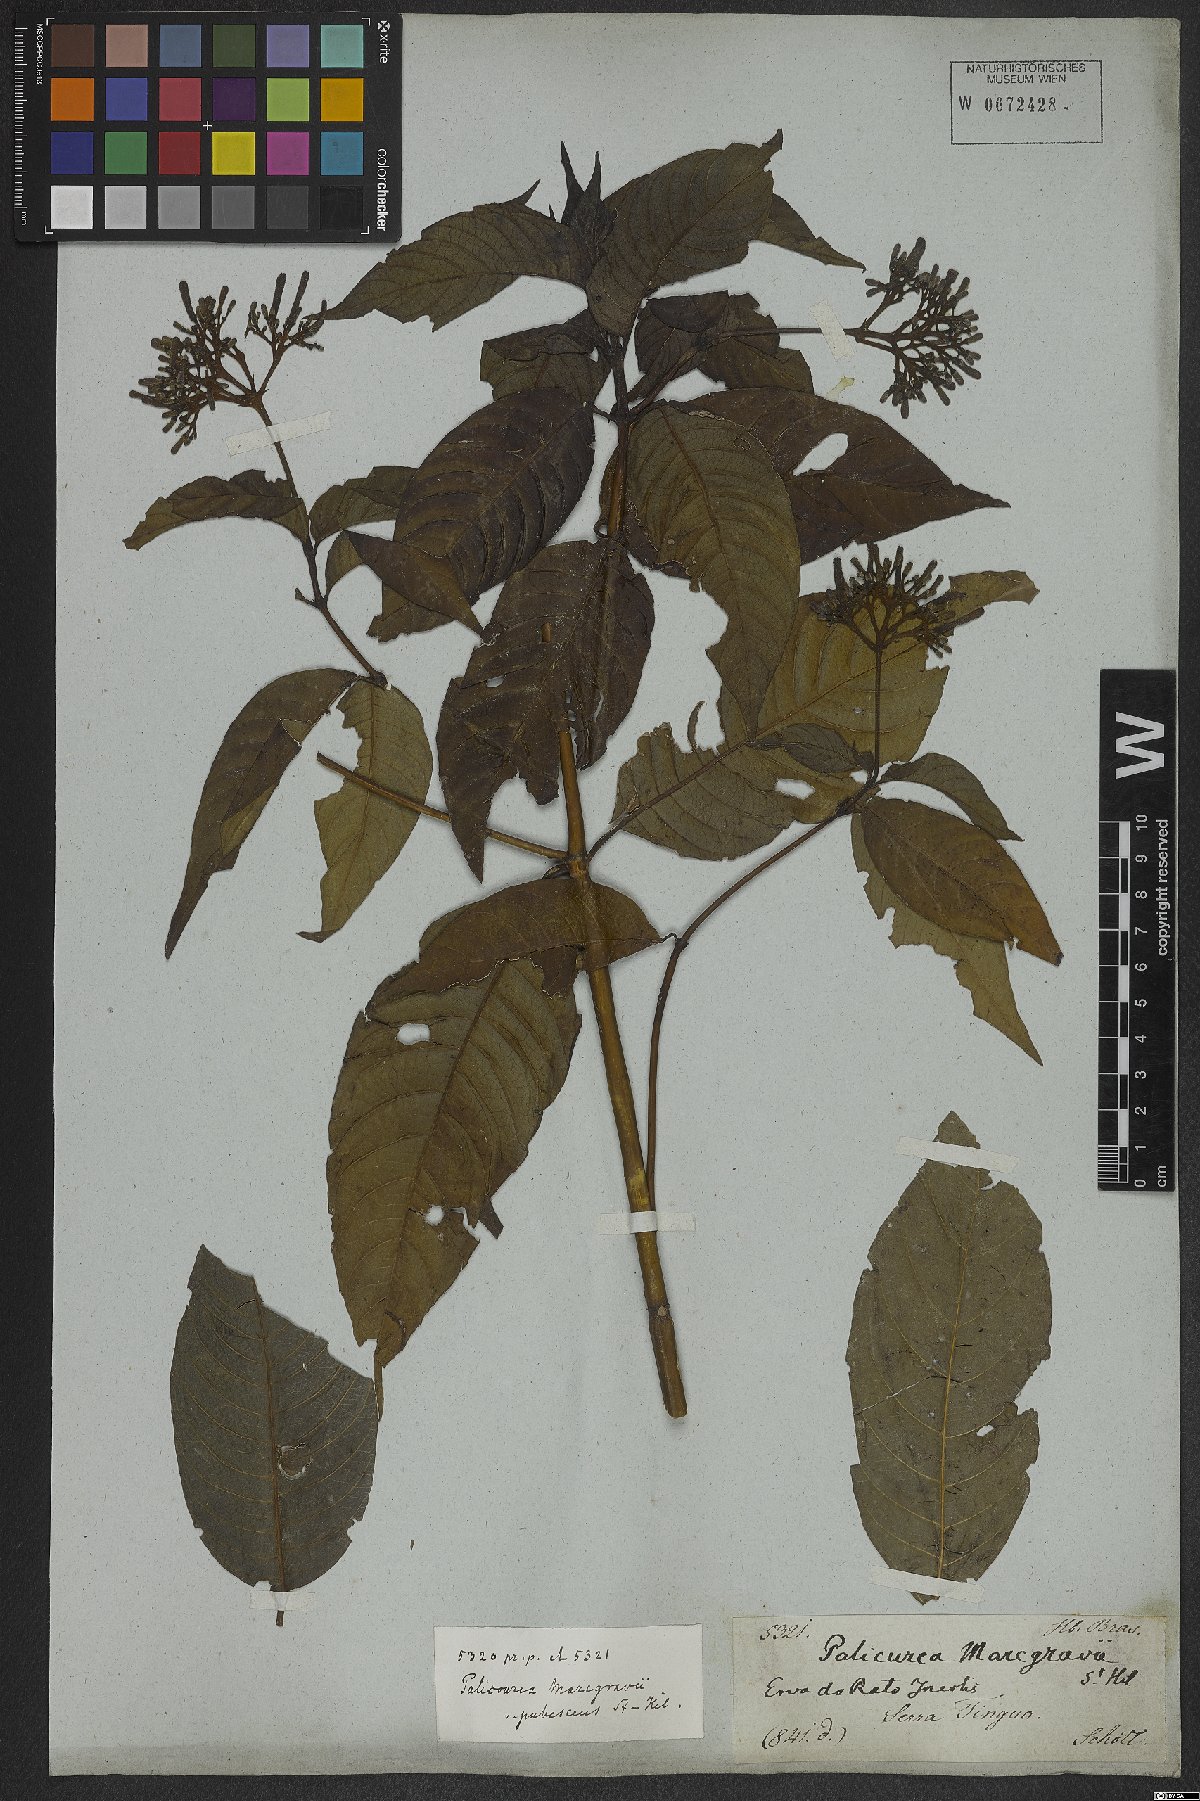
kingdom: Plantae
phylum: Tracheophyta
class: Magnoliopsida
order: Gentianales
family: Rubiaceae
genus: Palicourea
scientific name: Palicourea marcgravii
